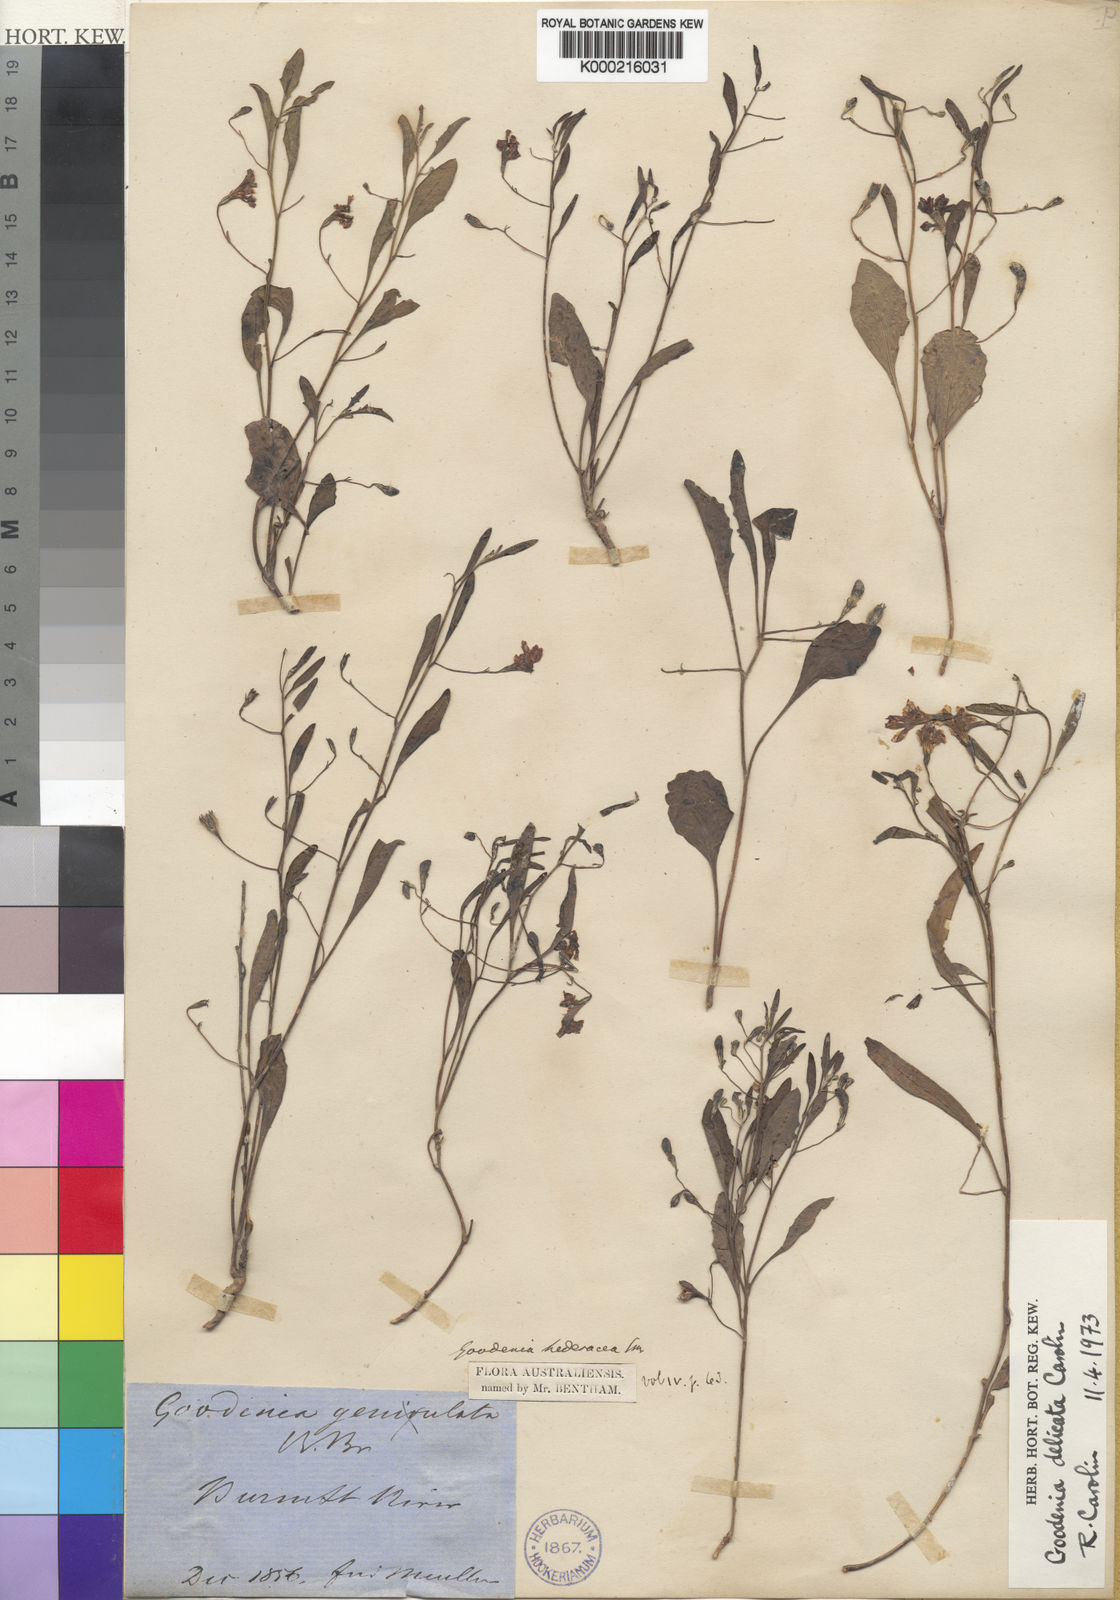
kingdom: Plantae
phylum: Tracheophyta
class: Magnoliopsida
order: Asterales
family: Goodeniaceae
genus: Goodenia
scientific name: Goodenia delicata
